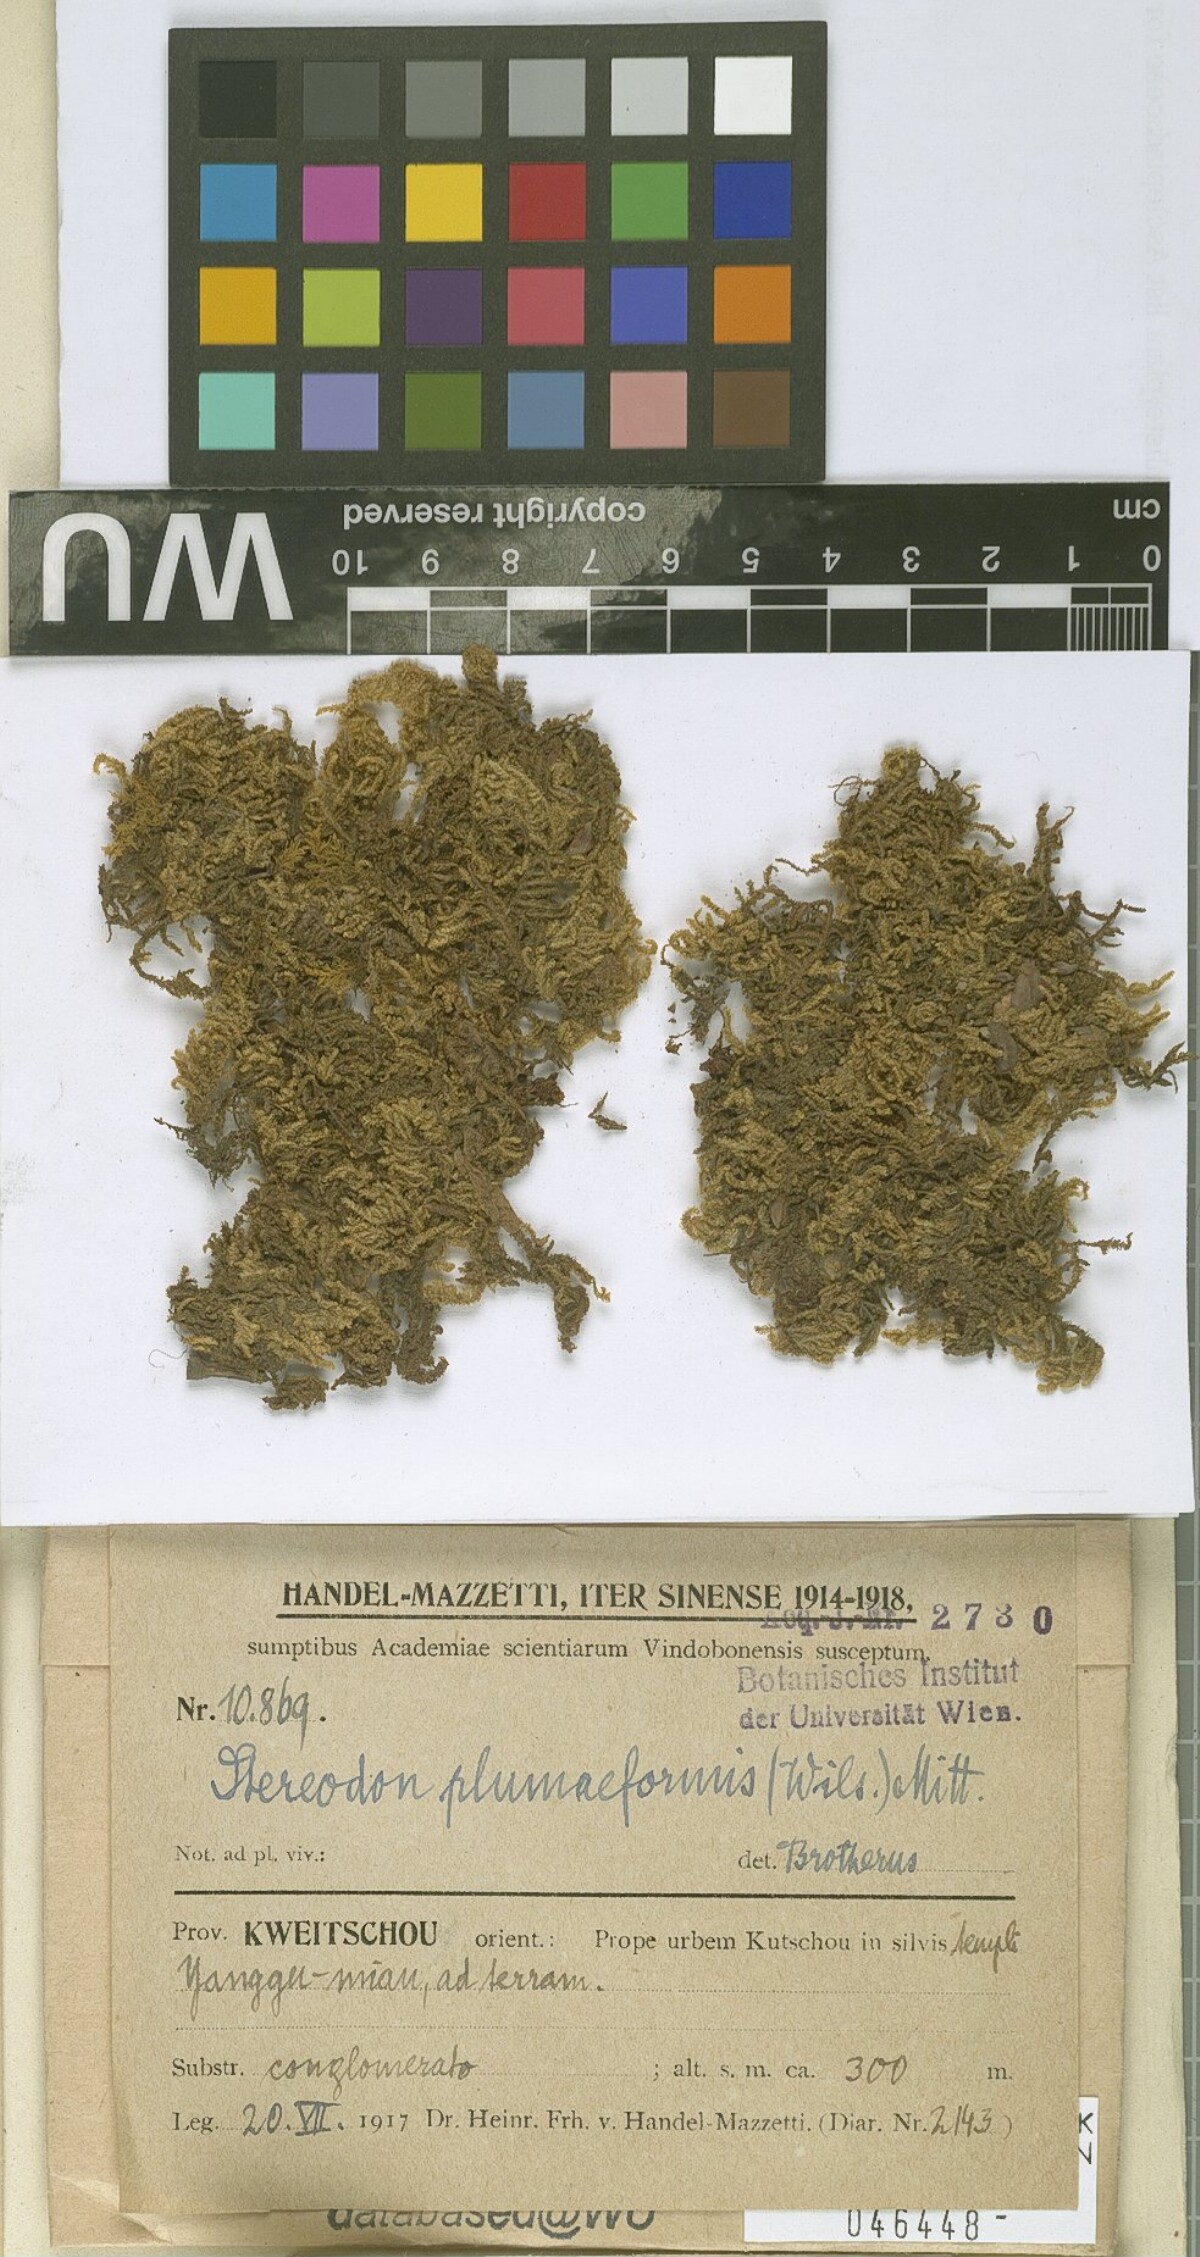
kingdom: Plantae
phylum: Bryophyta
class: Bryopsida
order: Hypnales
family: Hypnaceae
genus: Hypnum
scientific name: Hypnum plumaeforme
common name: Cypress-leaved plaitmoss
